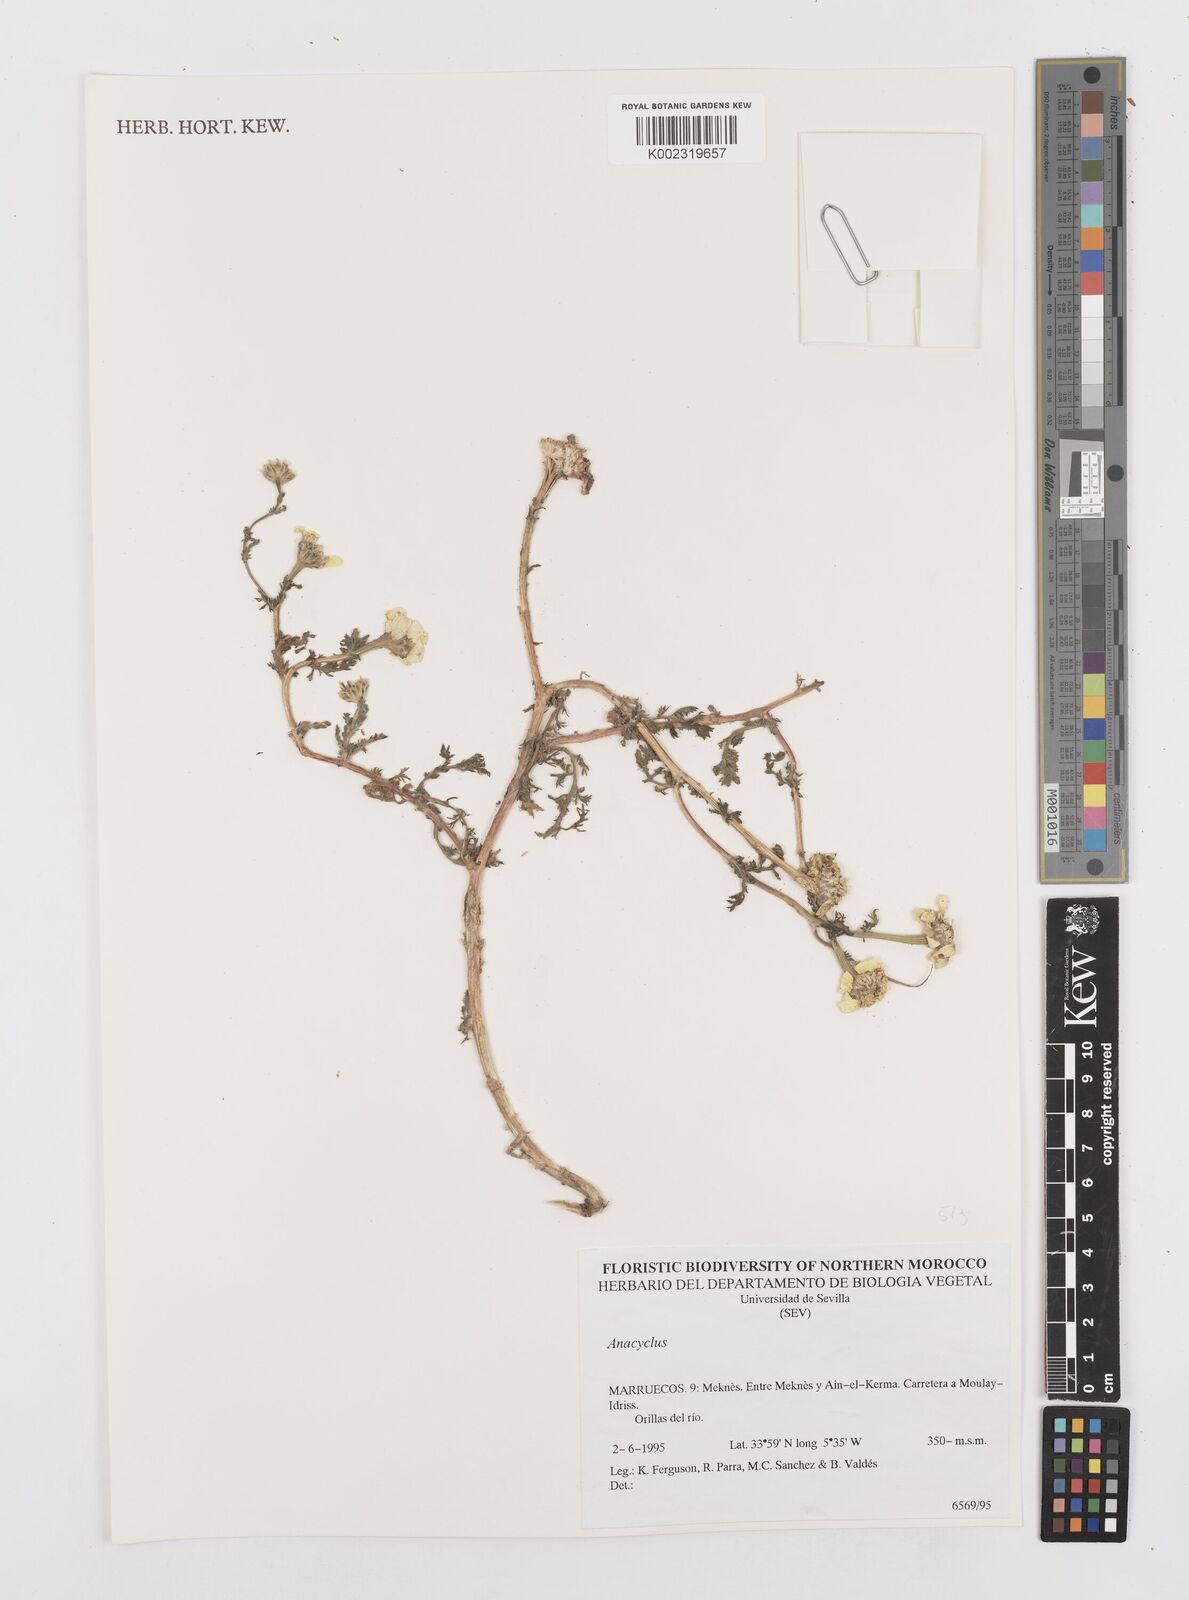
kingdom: Plantae
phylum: Tracheophyta
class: Magnoliopsida
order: Asterales
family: Asteraceae
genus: Anacyclus
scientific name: Anacyclus
